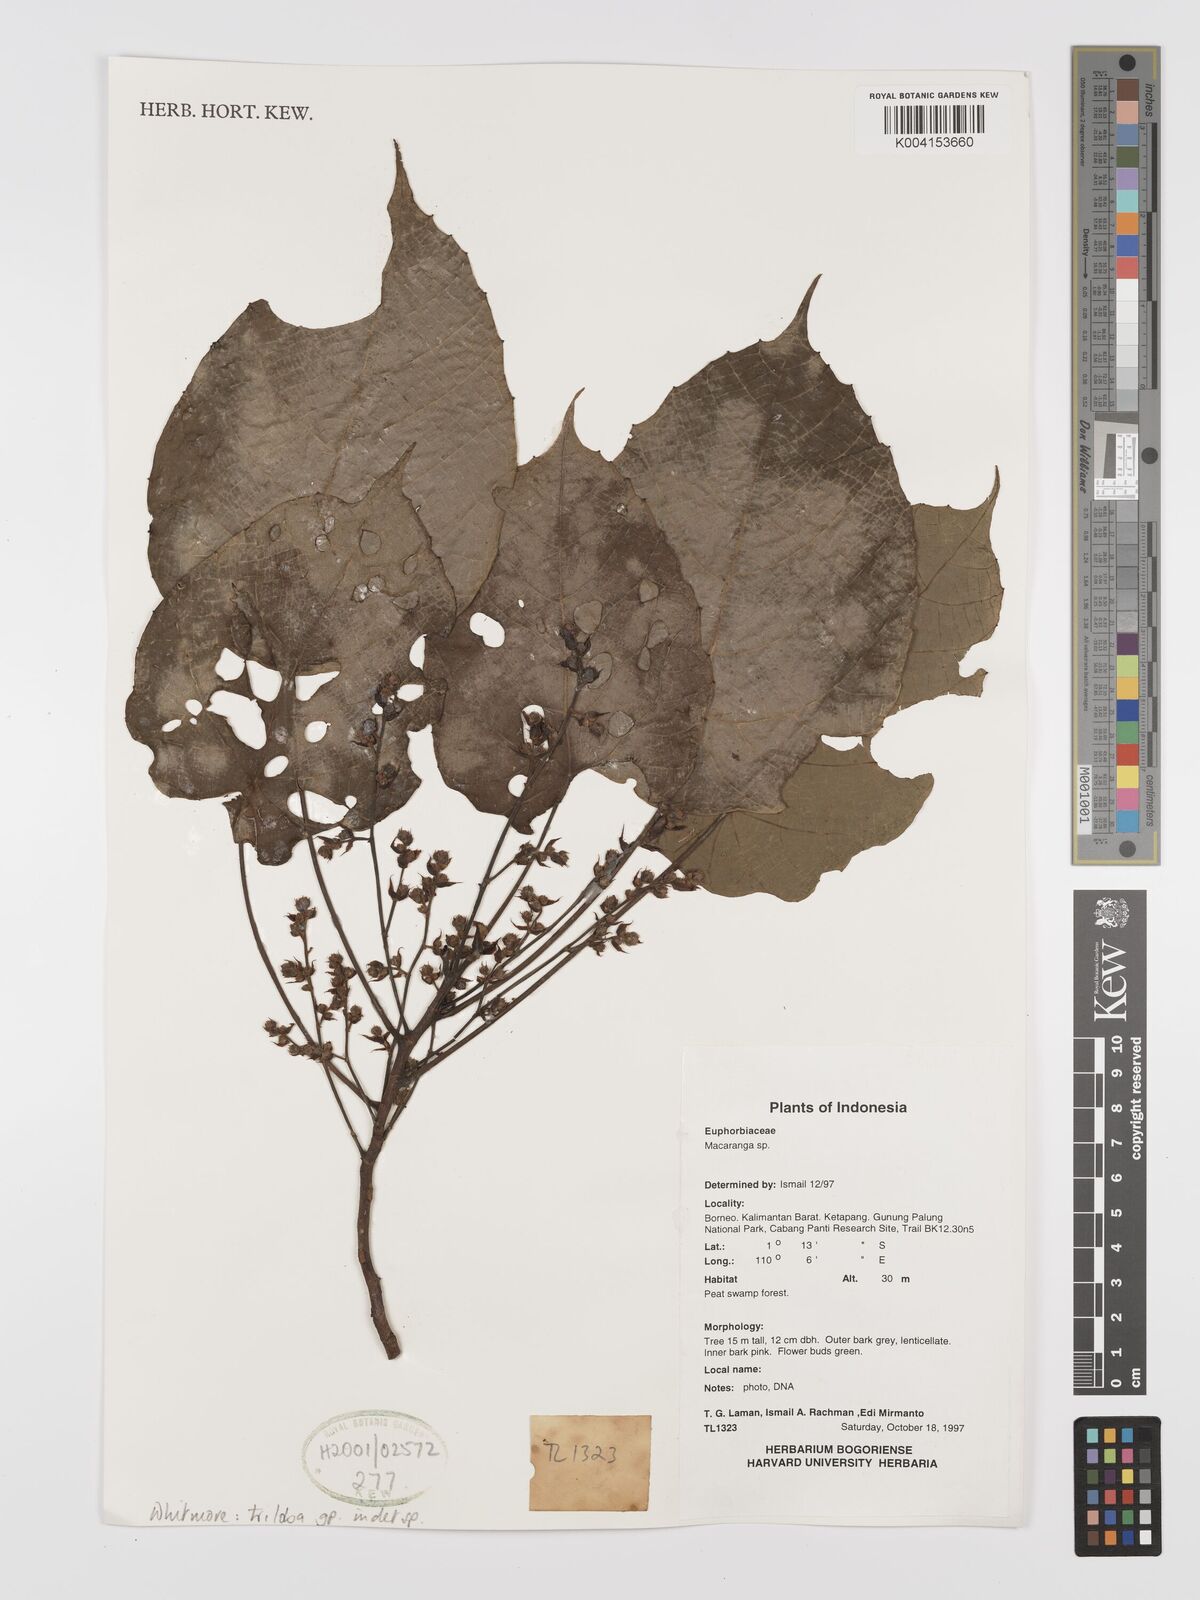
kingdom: Plantae
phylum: Tracheophyta
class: Magnoliopsida
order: Malpighiales
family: Euphorbiaceae
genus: Macaranga
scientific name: Macaranga triloba
